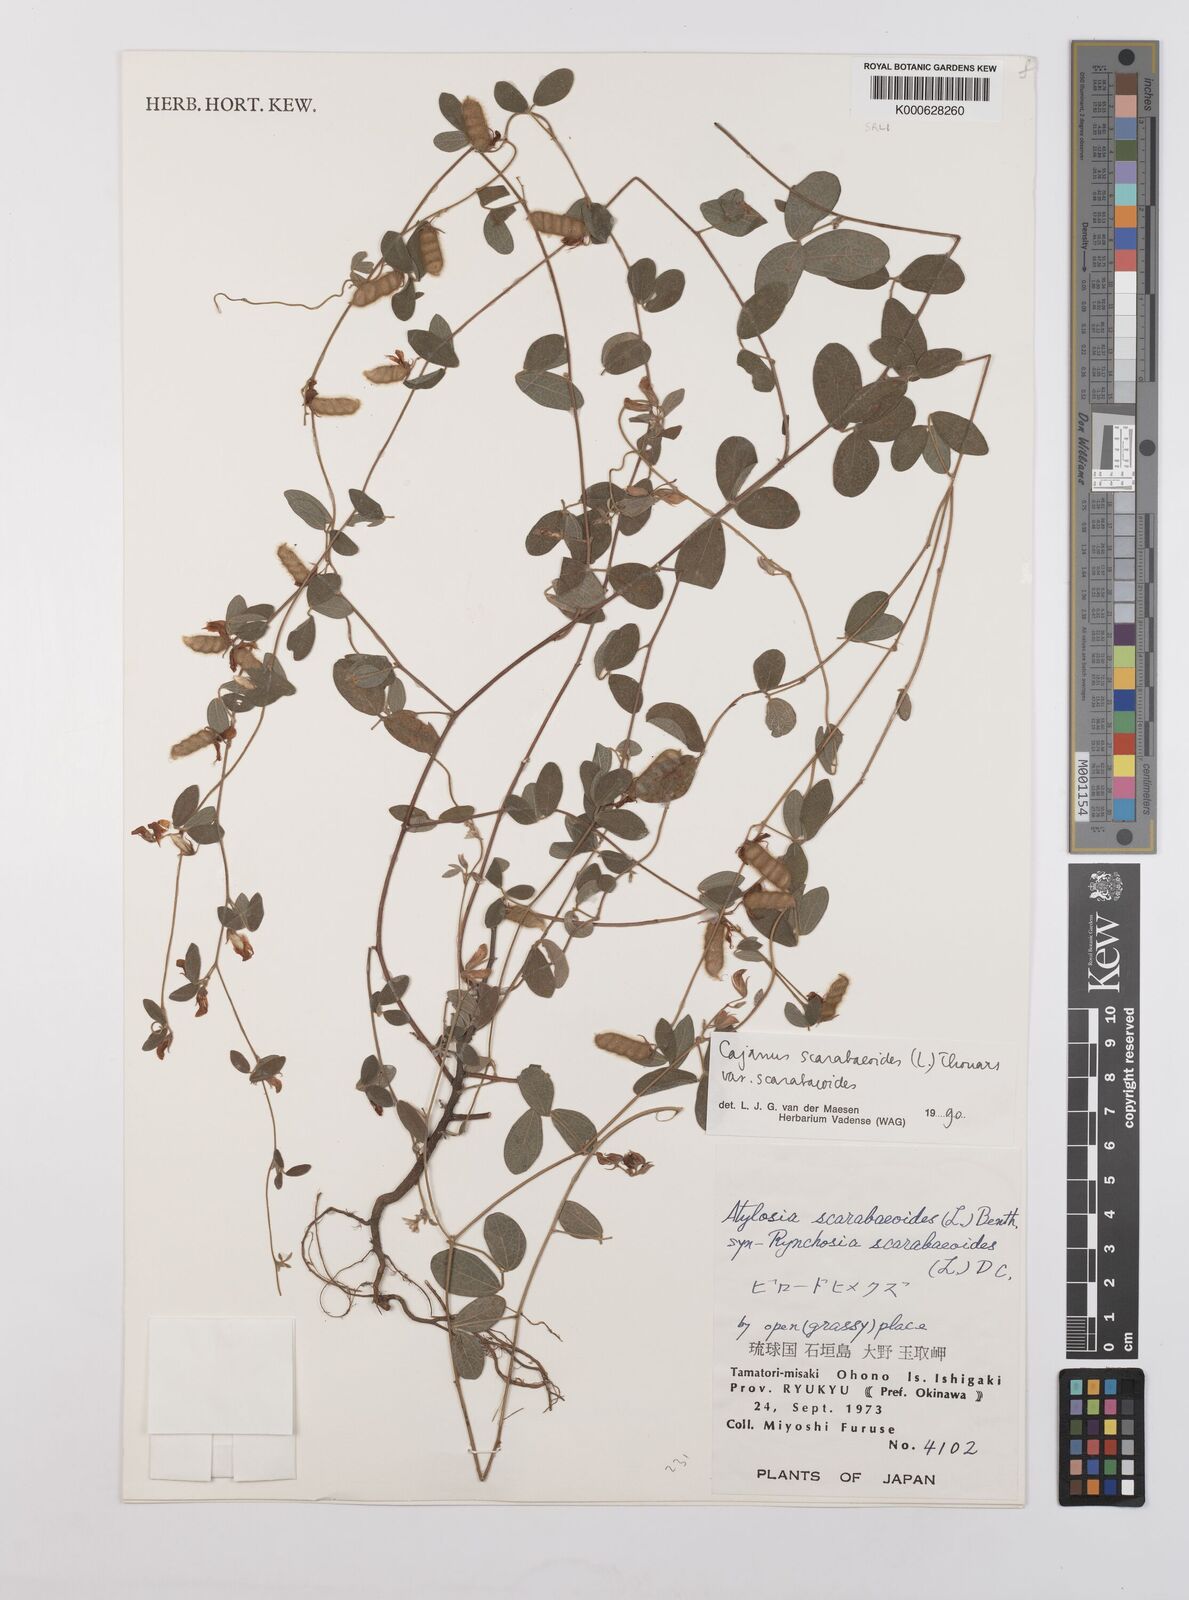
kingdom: Plantae
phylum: Tracheophyta
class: Magnoliopsida
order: Fabales
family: Fabaceae
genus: Cajanus
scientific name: Cajanus
